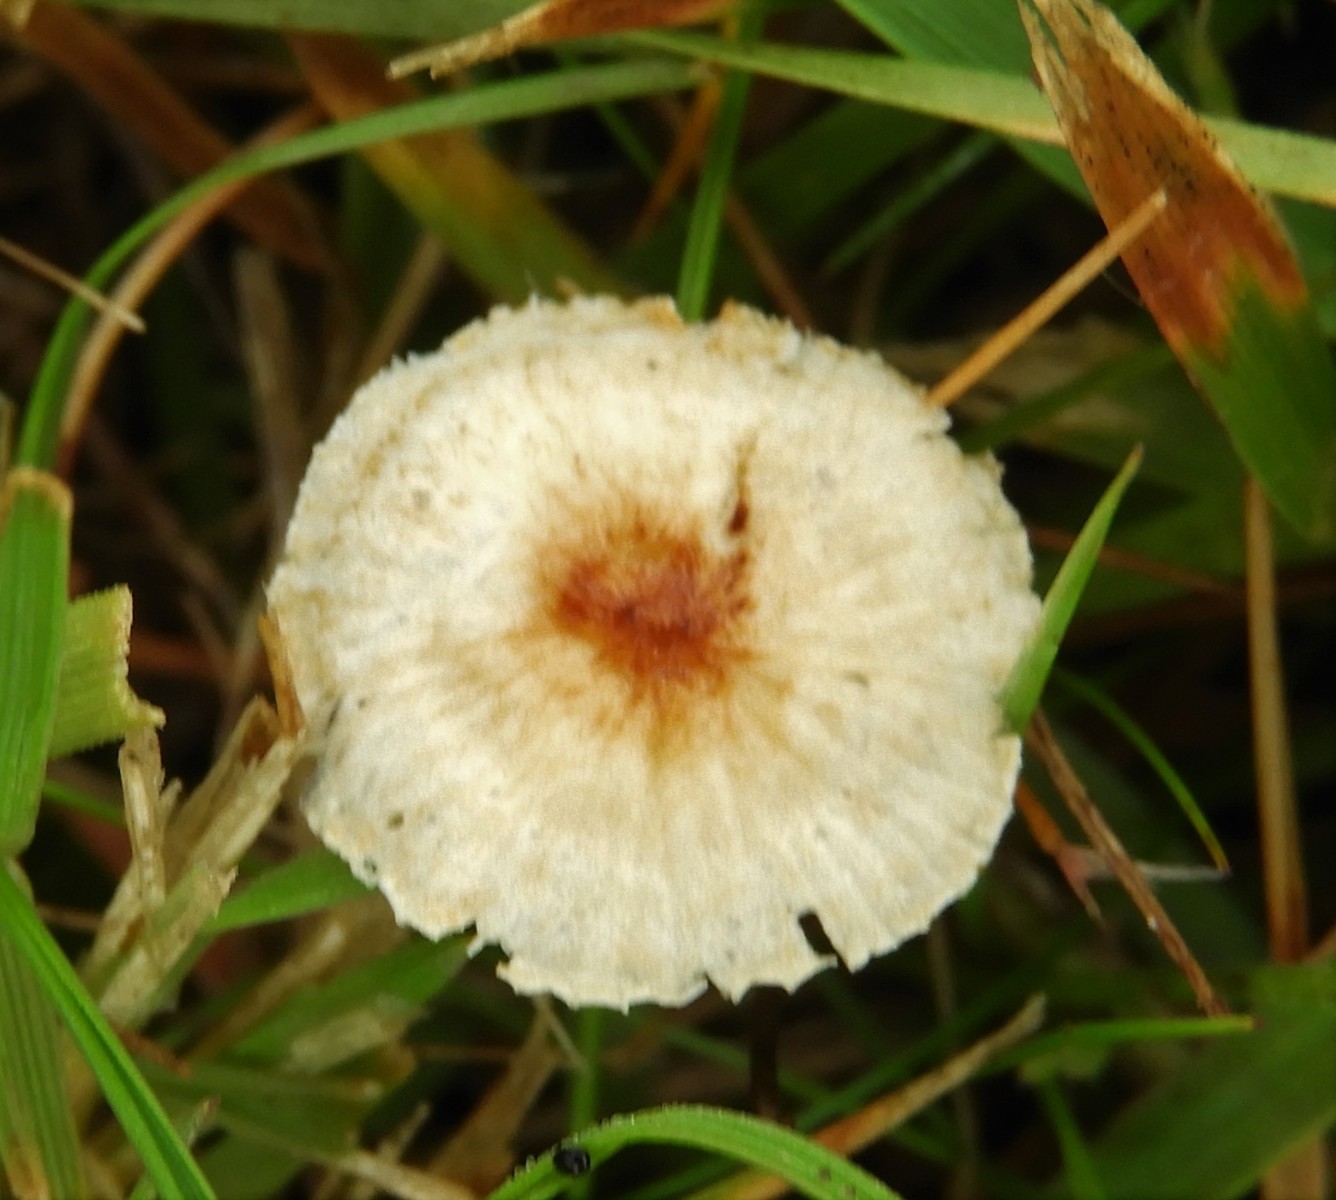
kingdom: Fungi
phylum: Basidiomycota
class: Agaricomycetes
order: Agaricales
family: Marasmiaceae
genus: Crinipellis
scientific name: Crinipellis scabella
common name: børstefod
